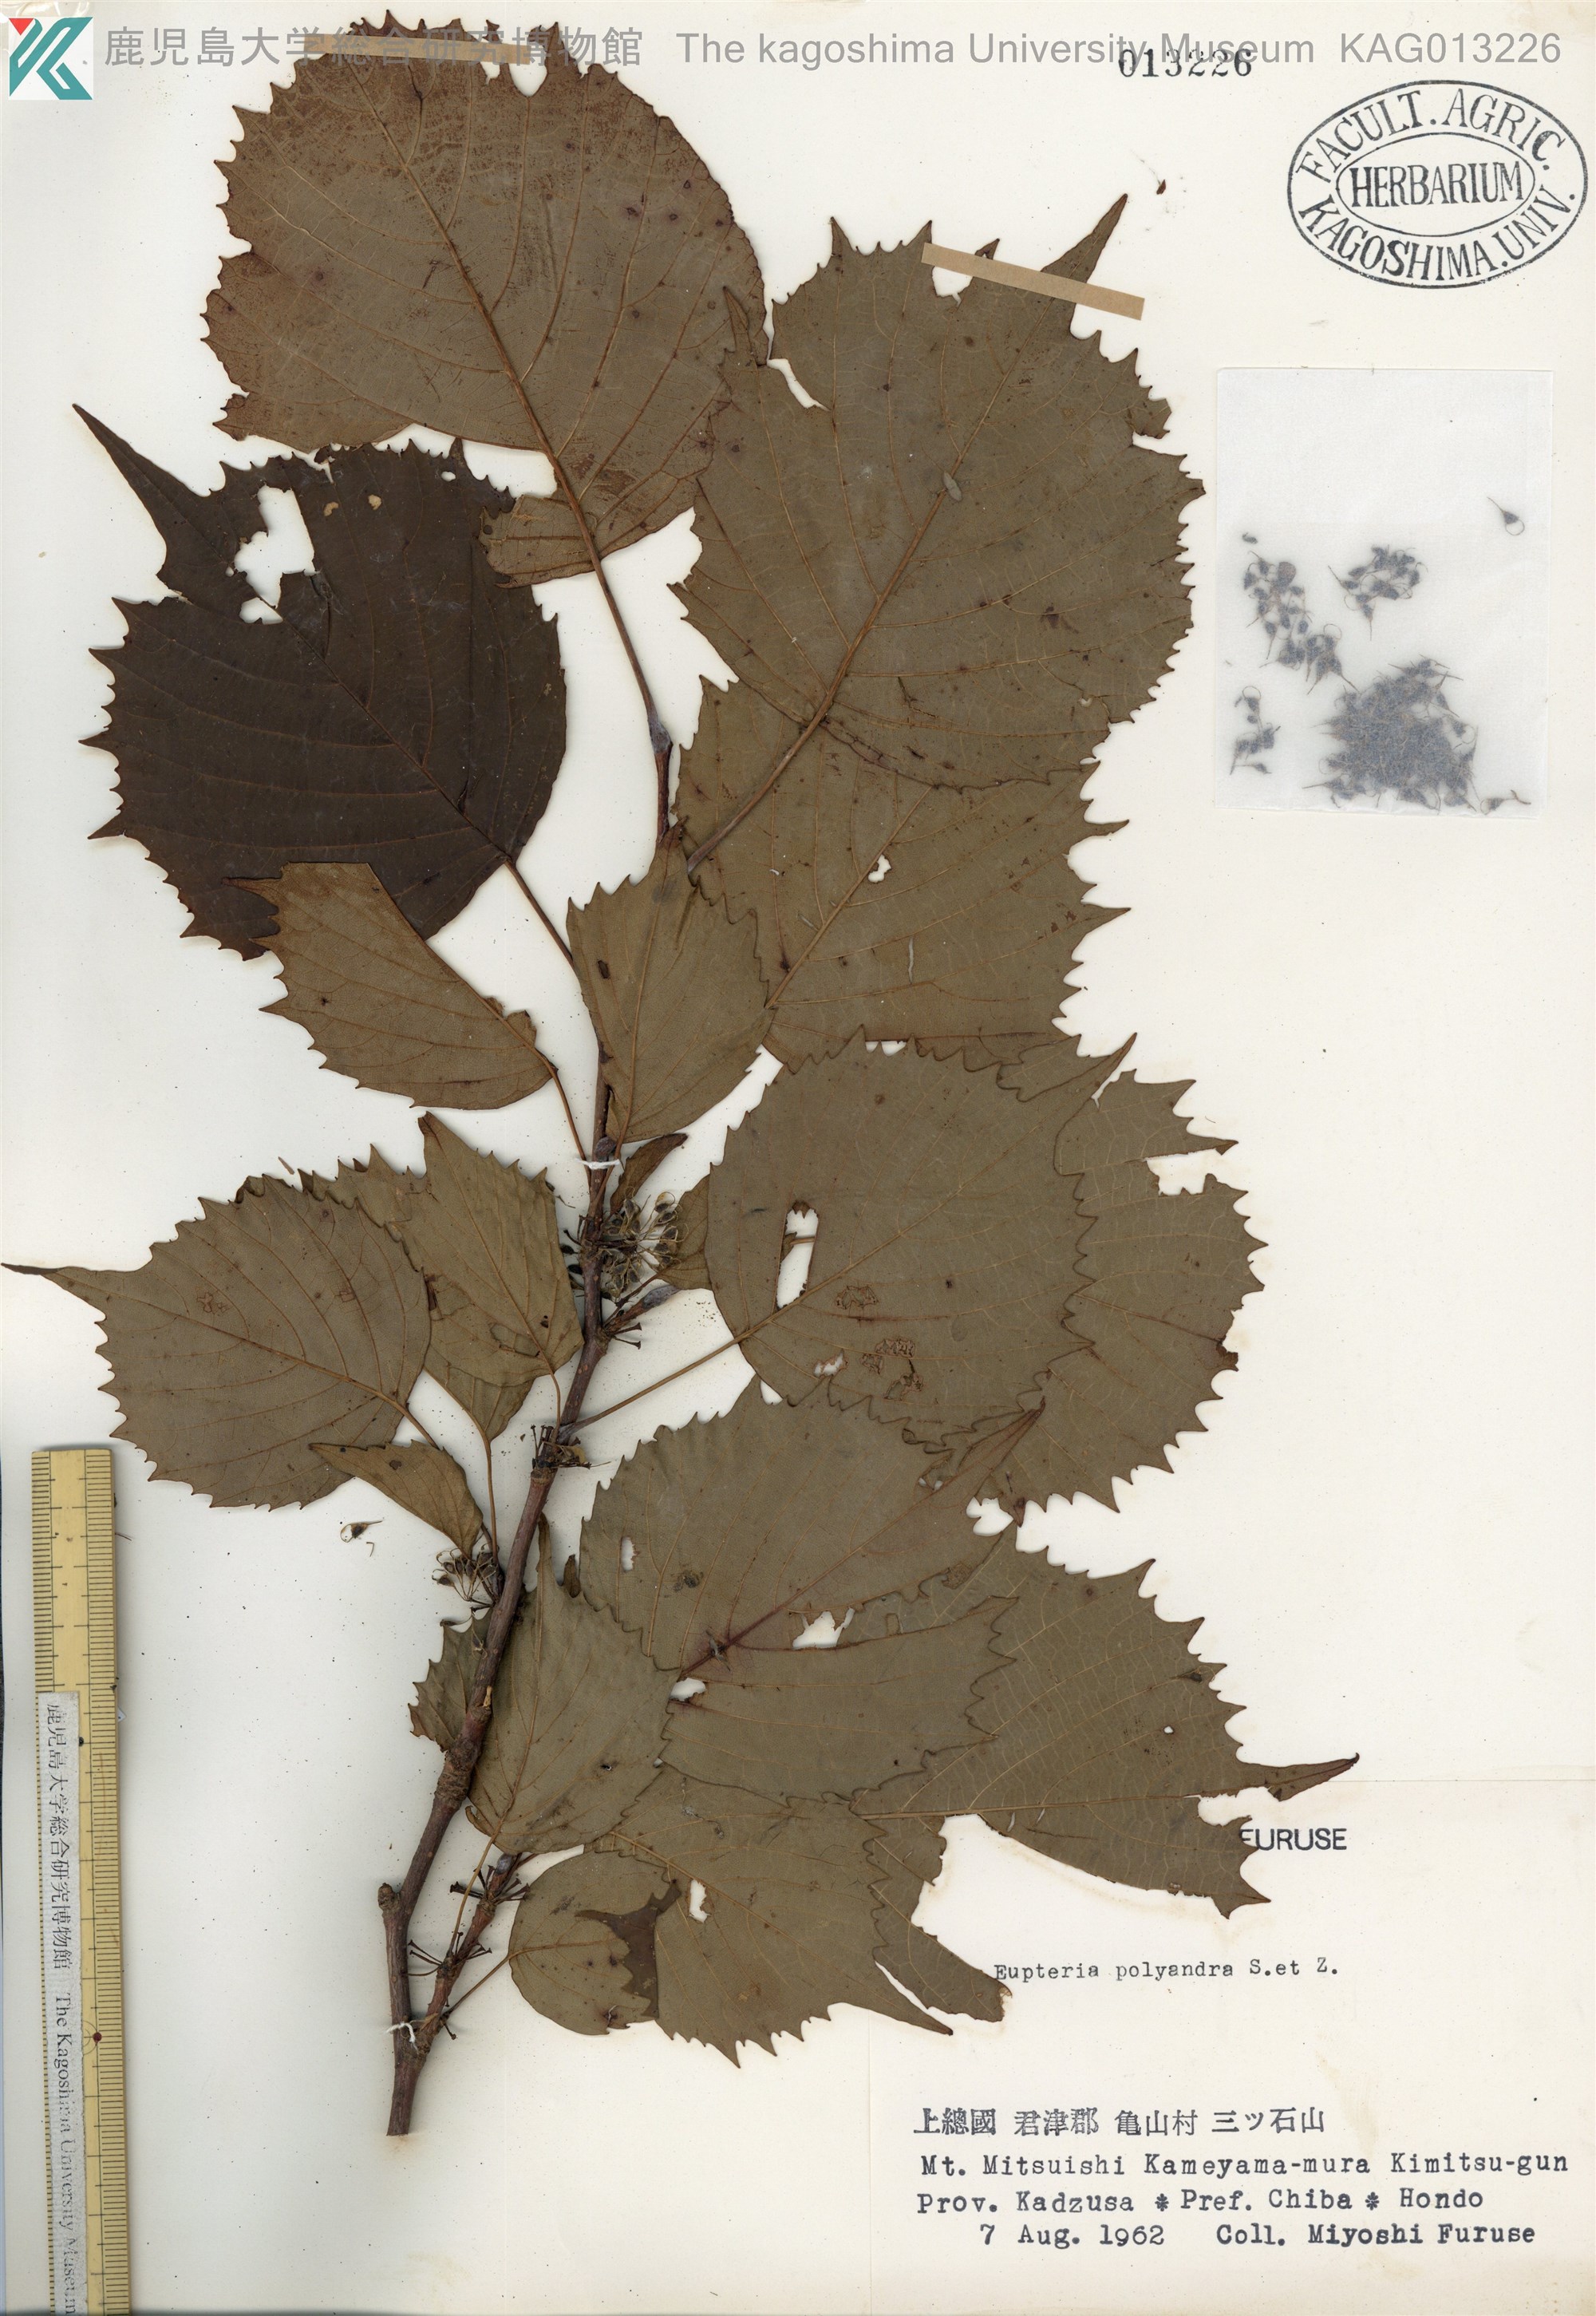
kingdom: Plantae
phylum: Tracheophyta
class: Magnoliopsida
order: Ranunculales
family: Eupteleaceae
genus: Euptelea
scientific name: Euptelea polyandra
